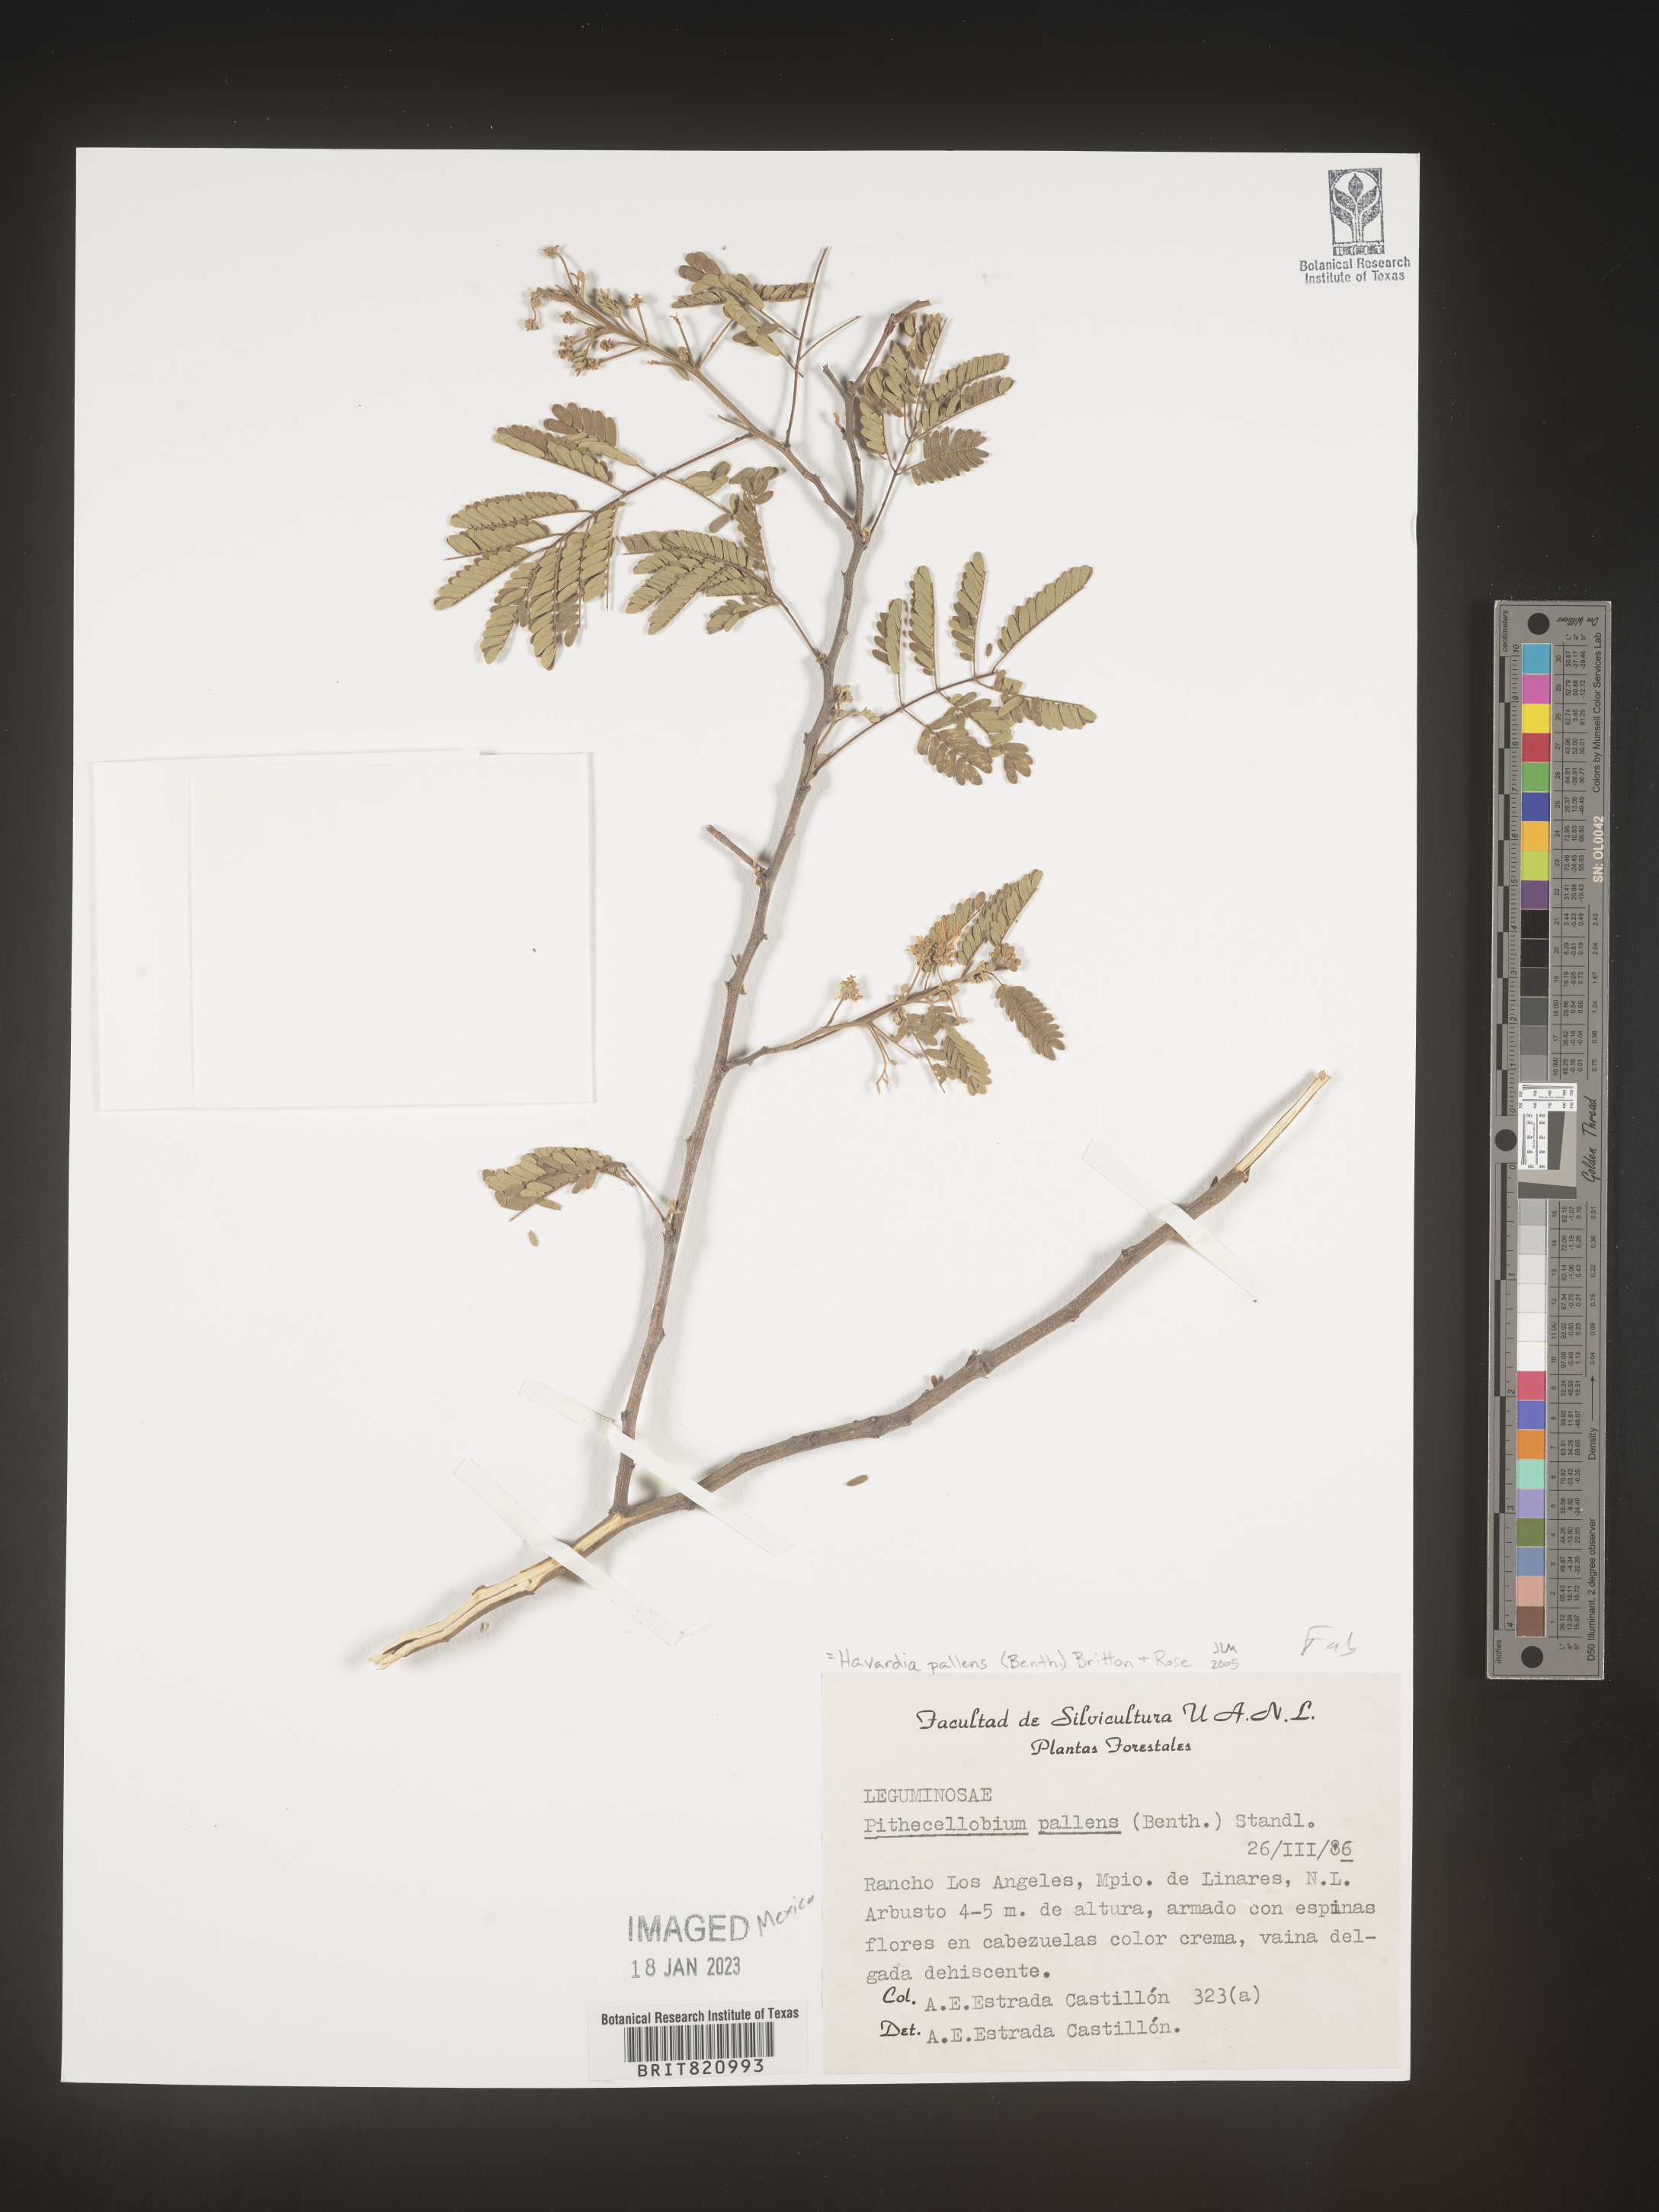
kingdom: Plantae
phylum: Tracheophyta
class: Magnoliopsida
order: Fabales
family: Fabaceae
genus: Havardia
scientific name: Havardia
